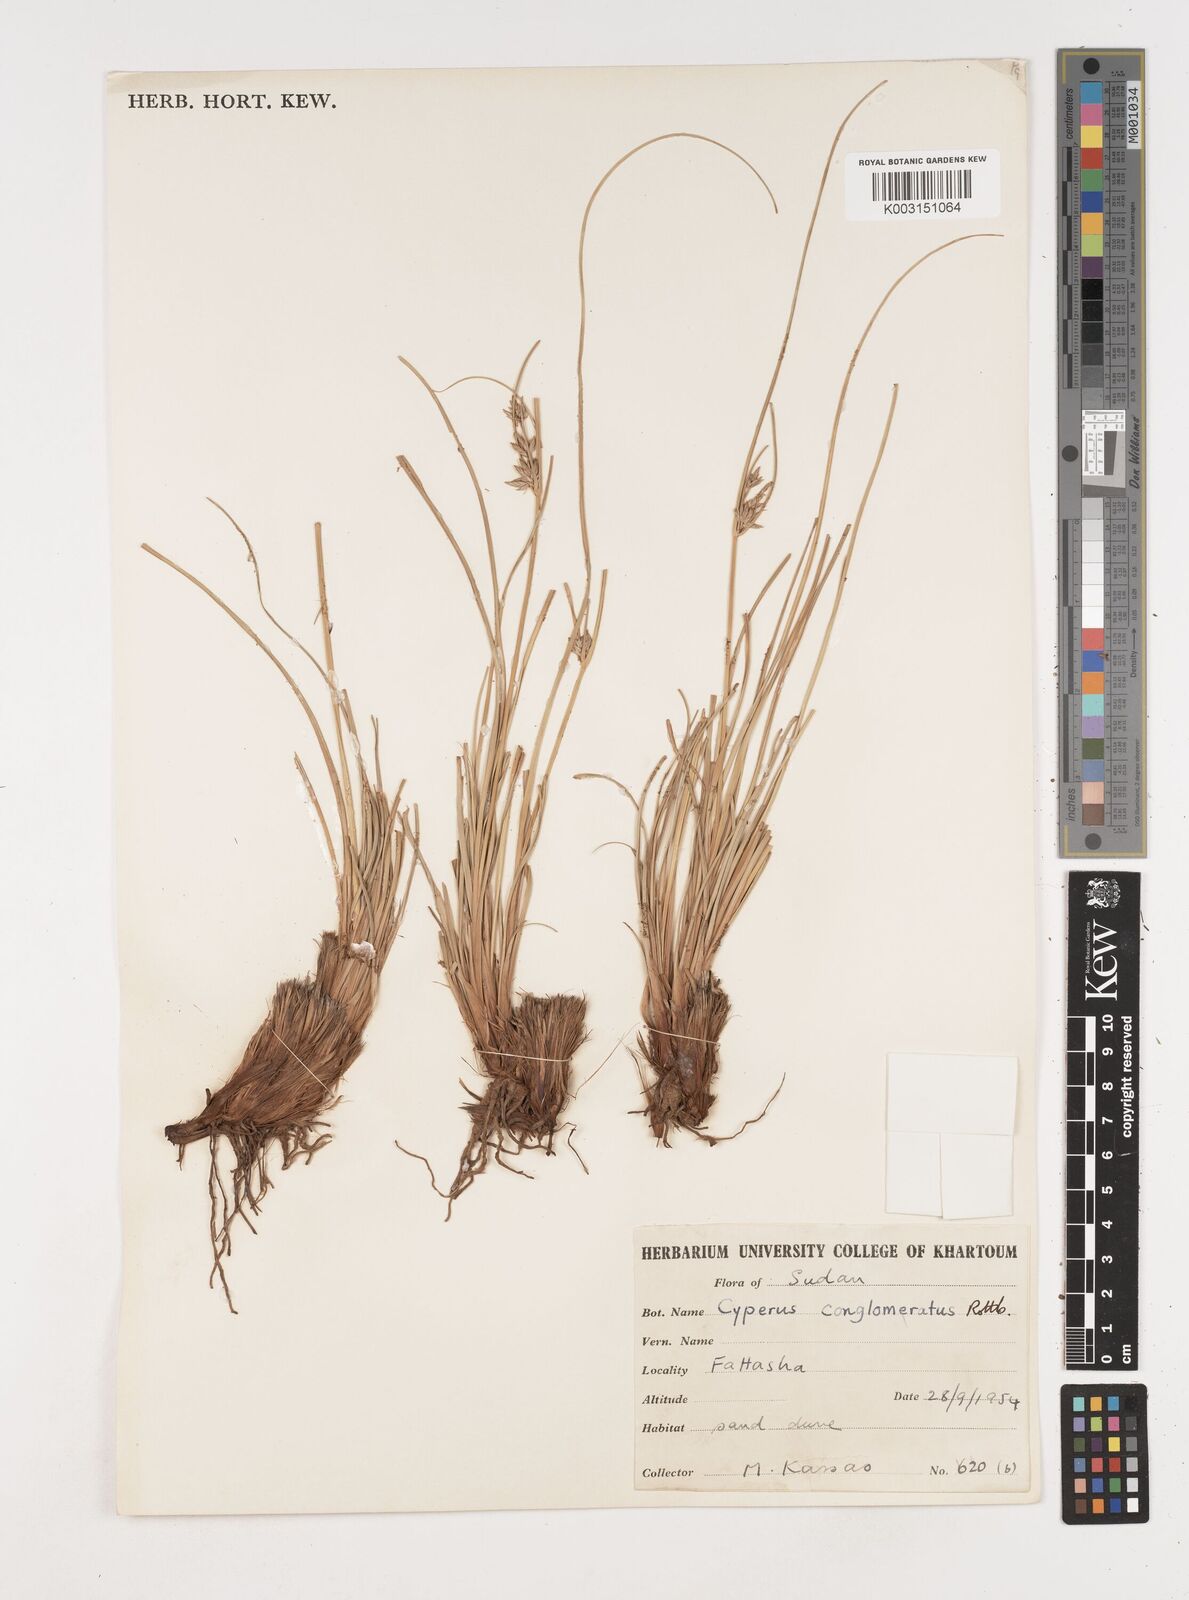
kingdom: Plantae
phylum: Tracheophyta
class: Liliopsida
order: Poales
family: Cyperaceae
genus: Cyperus
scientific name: Cyperus jeminicus
